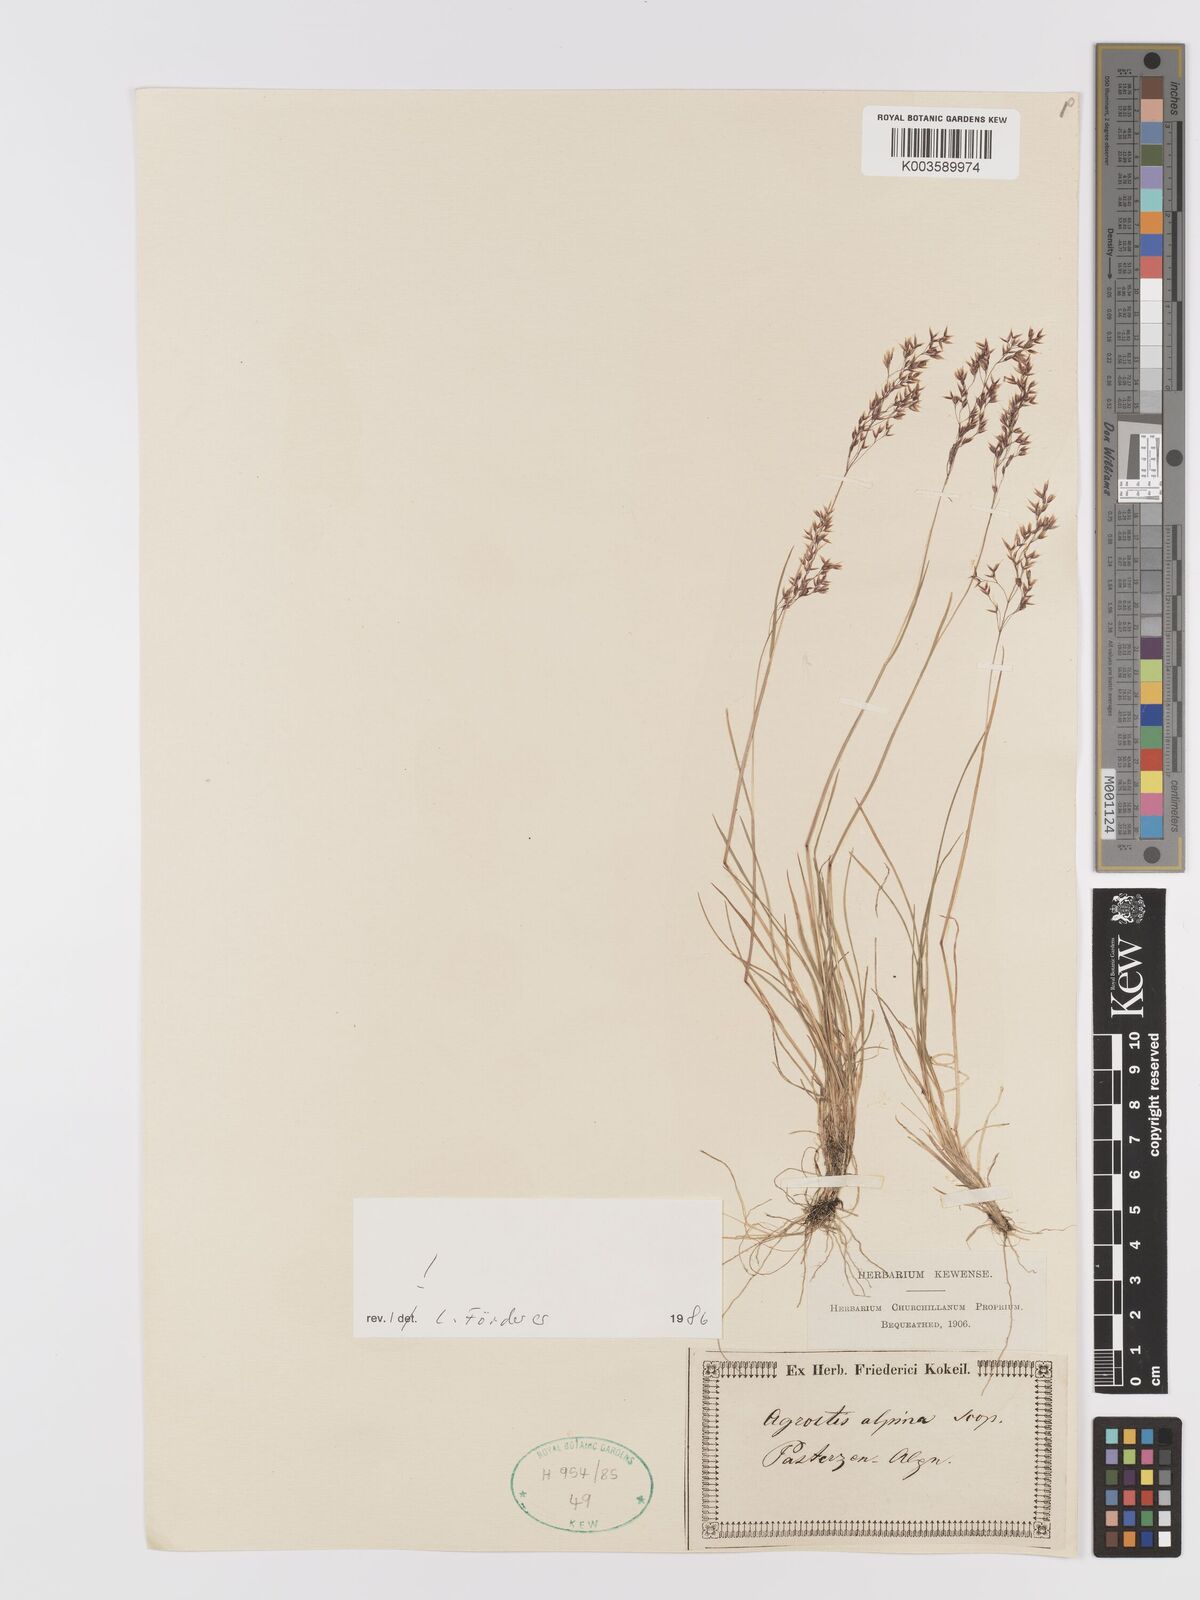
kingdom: Plantae
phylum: Tracheophyta
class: Liliopsida
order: Poales
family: Poaceae
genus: Alpagrostis
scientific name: Alpagrostis alpina
